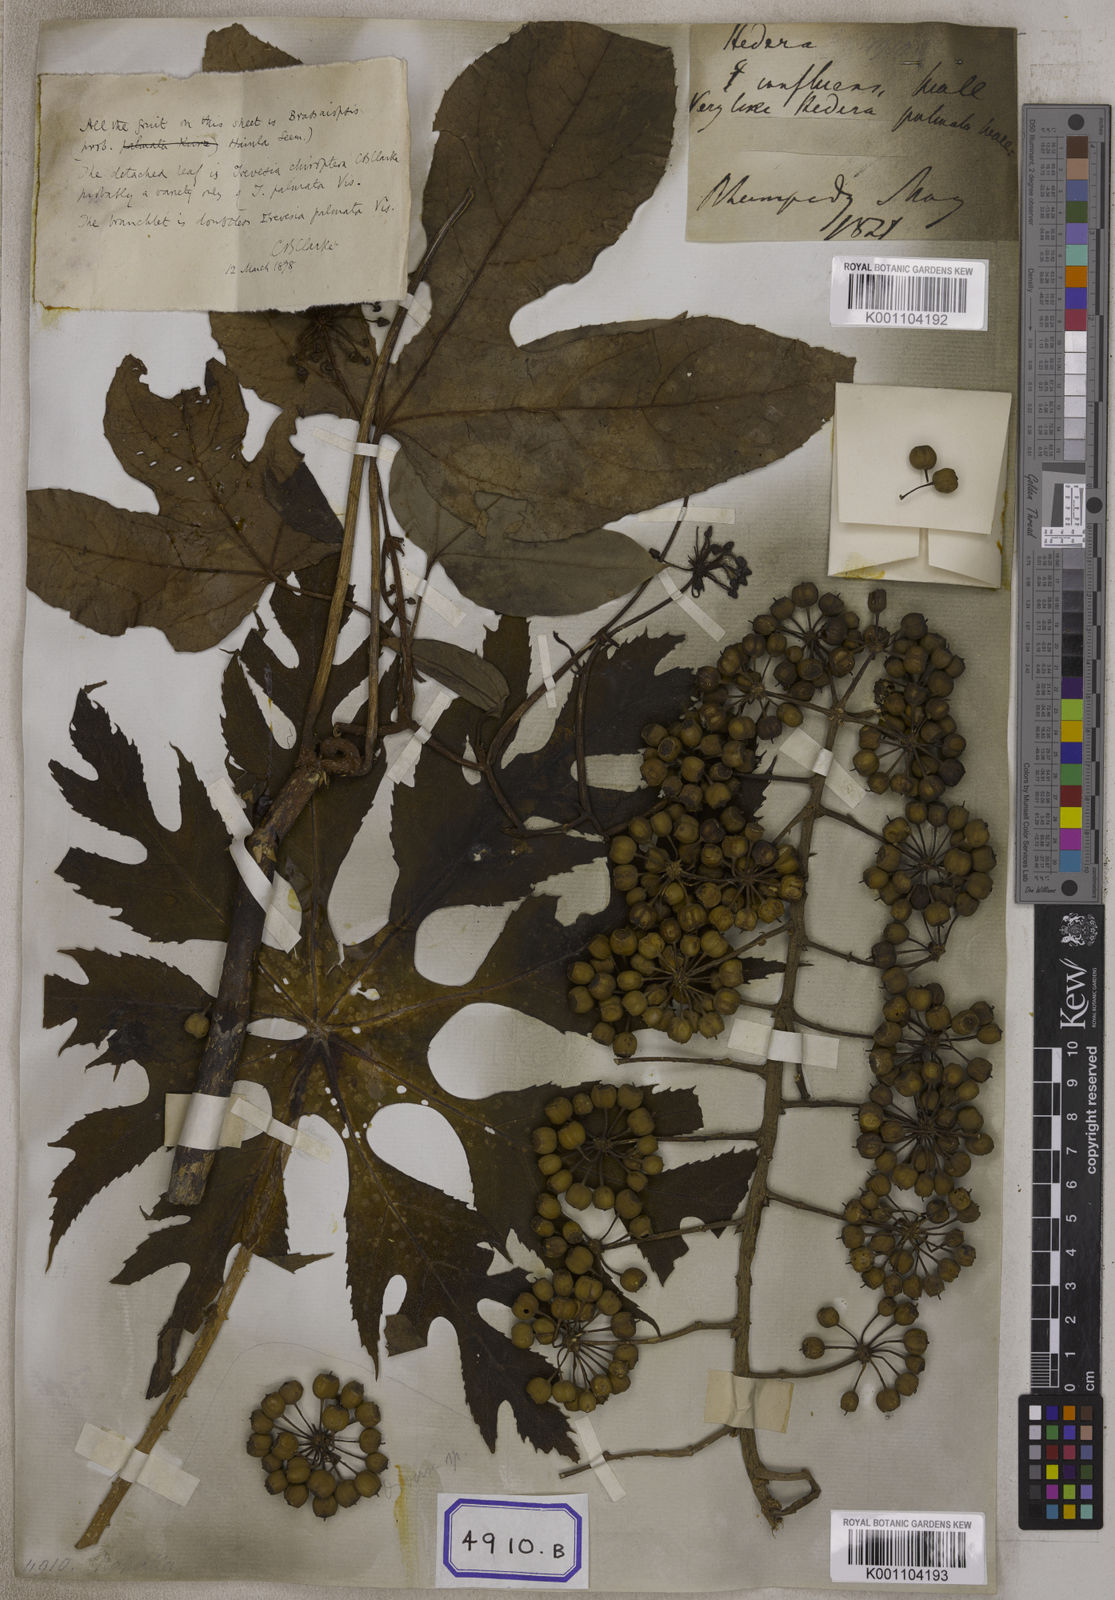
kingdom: Plantae
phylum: Tracheophyta
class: Magnoliopsida
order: Apiales
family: Araliaceae
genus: Hedera
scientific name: Hedera
